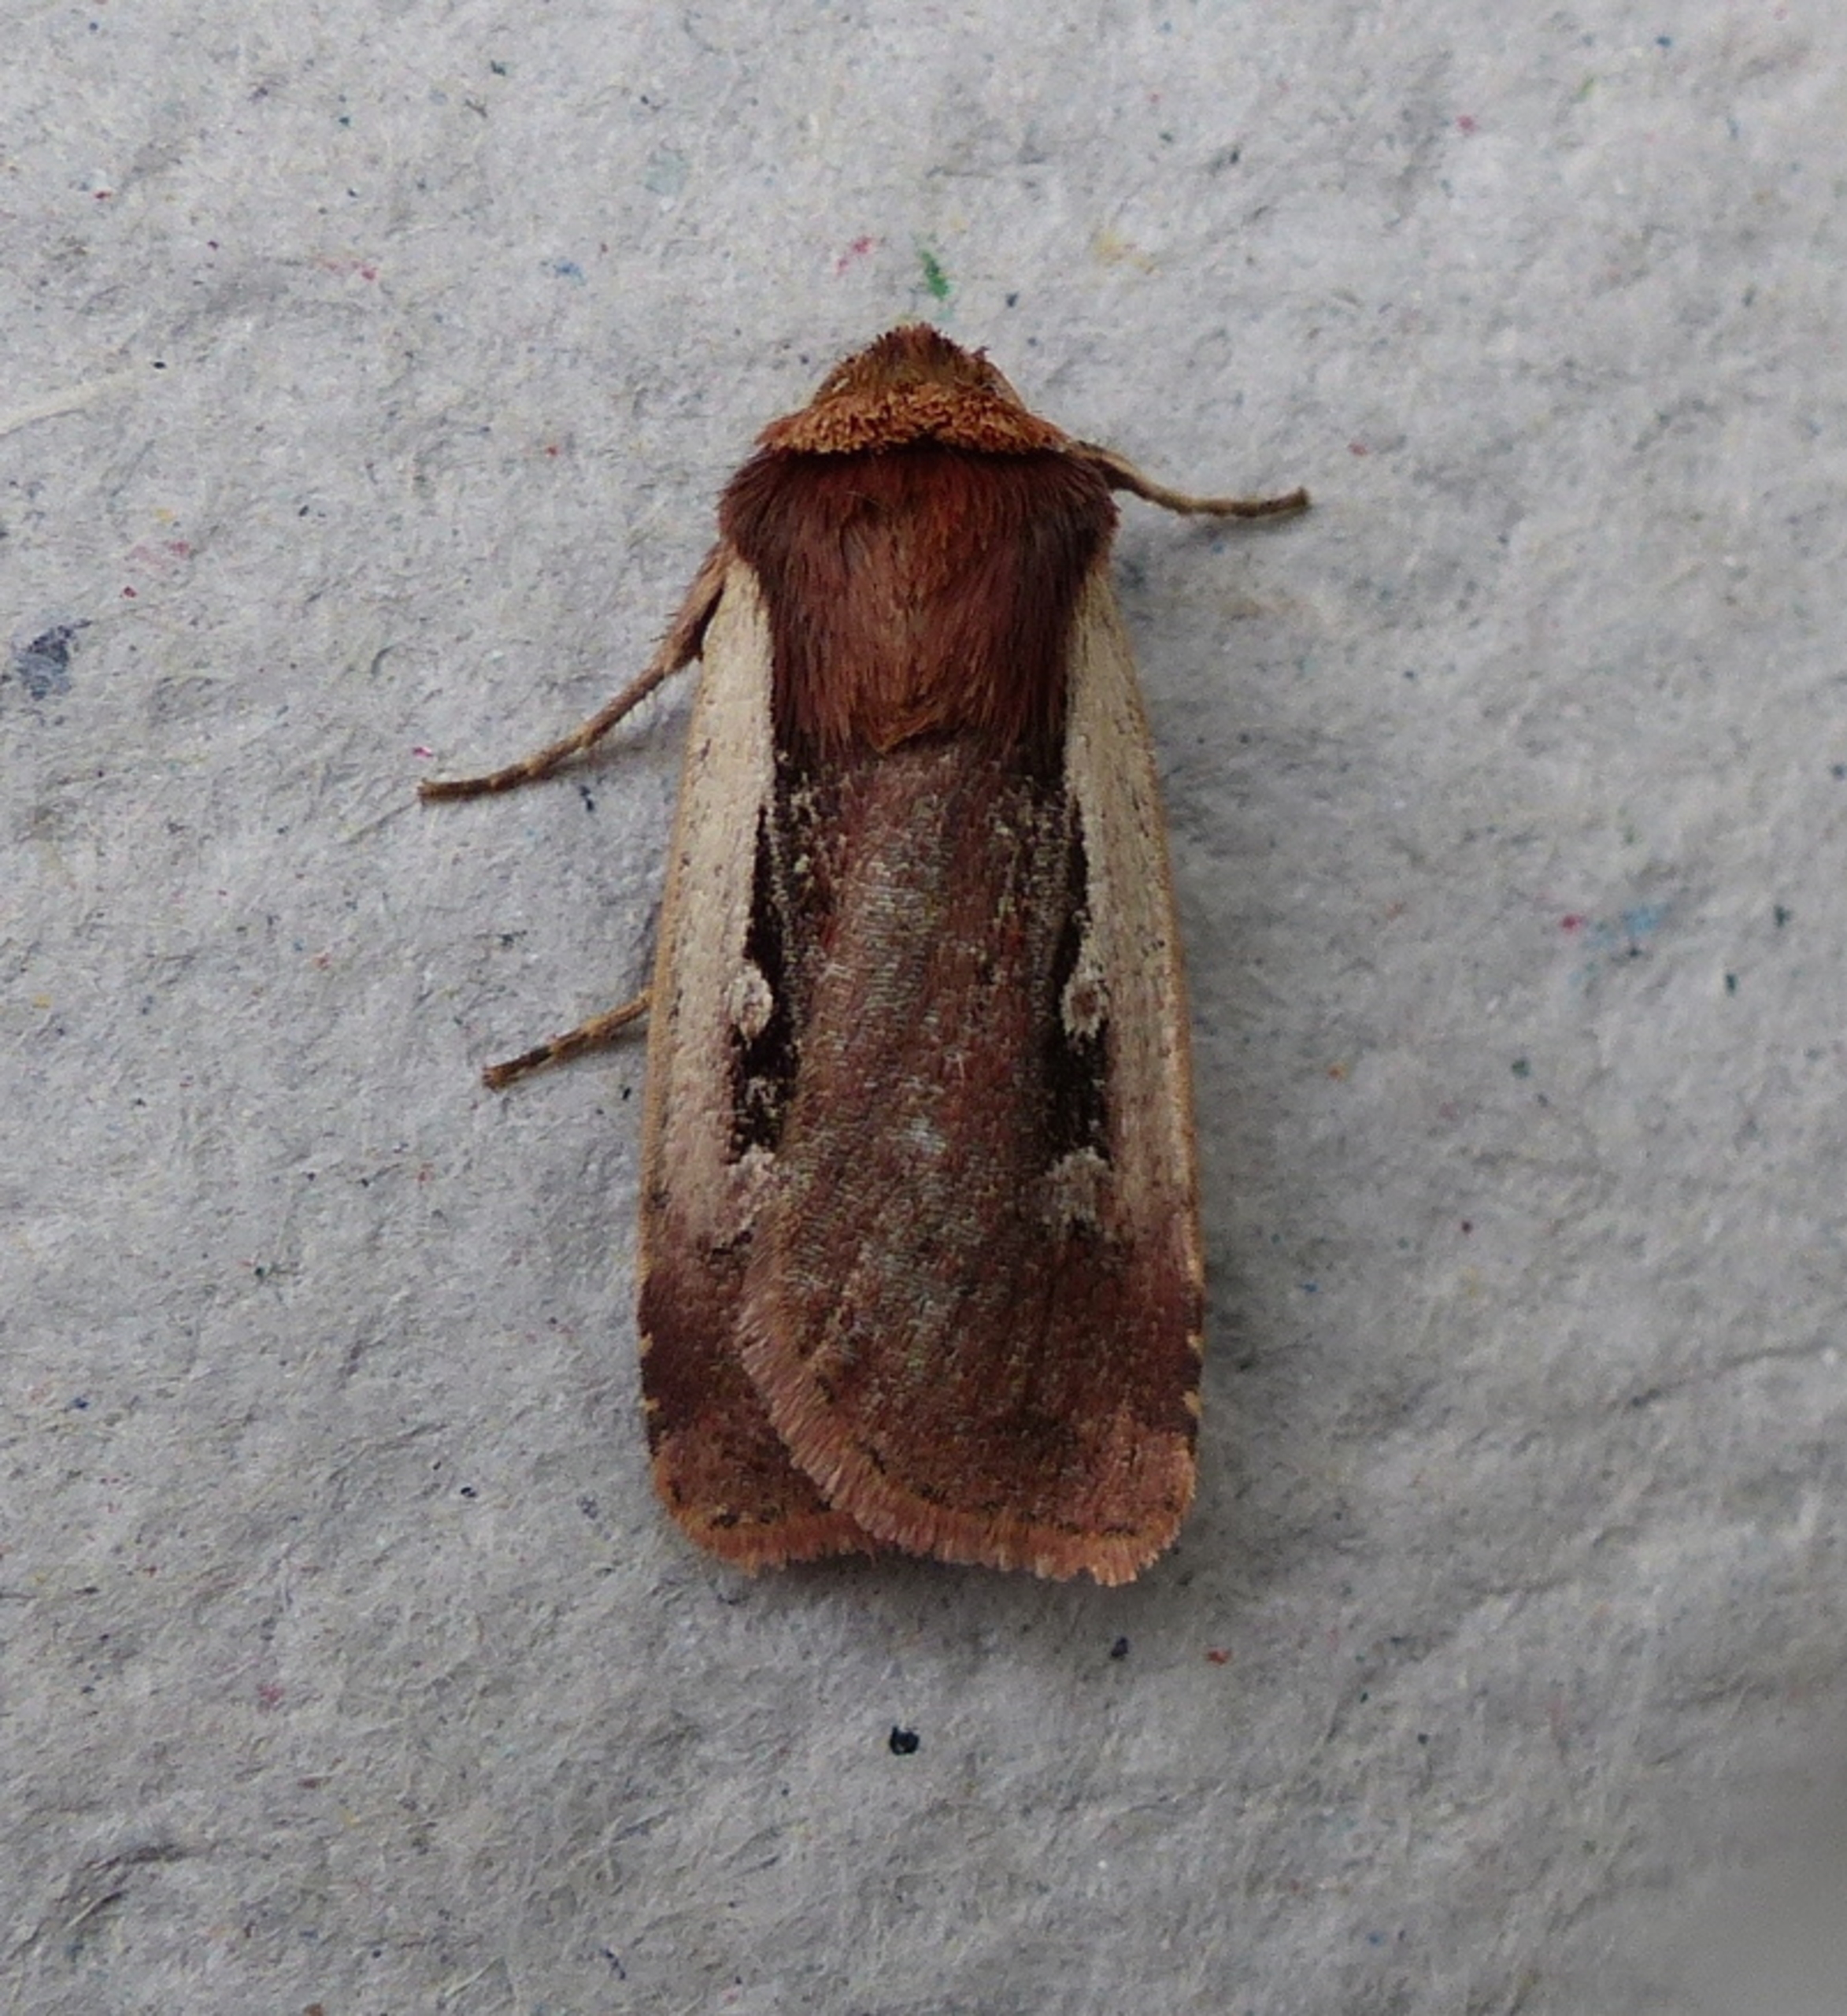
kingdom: Animalia
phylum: Arthropoda
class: Insecta
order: Lepidoptera
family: Noctuidae
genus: Ochropleura
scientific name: Ochropleura plecta
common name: Hvidrandet jordugle
